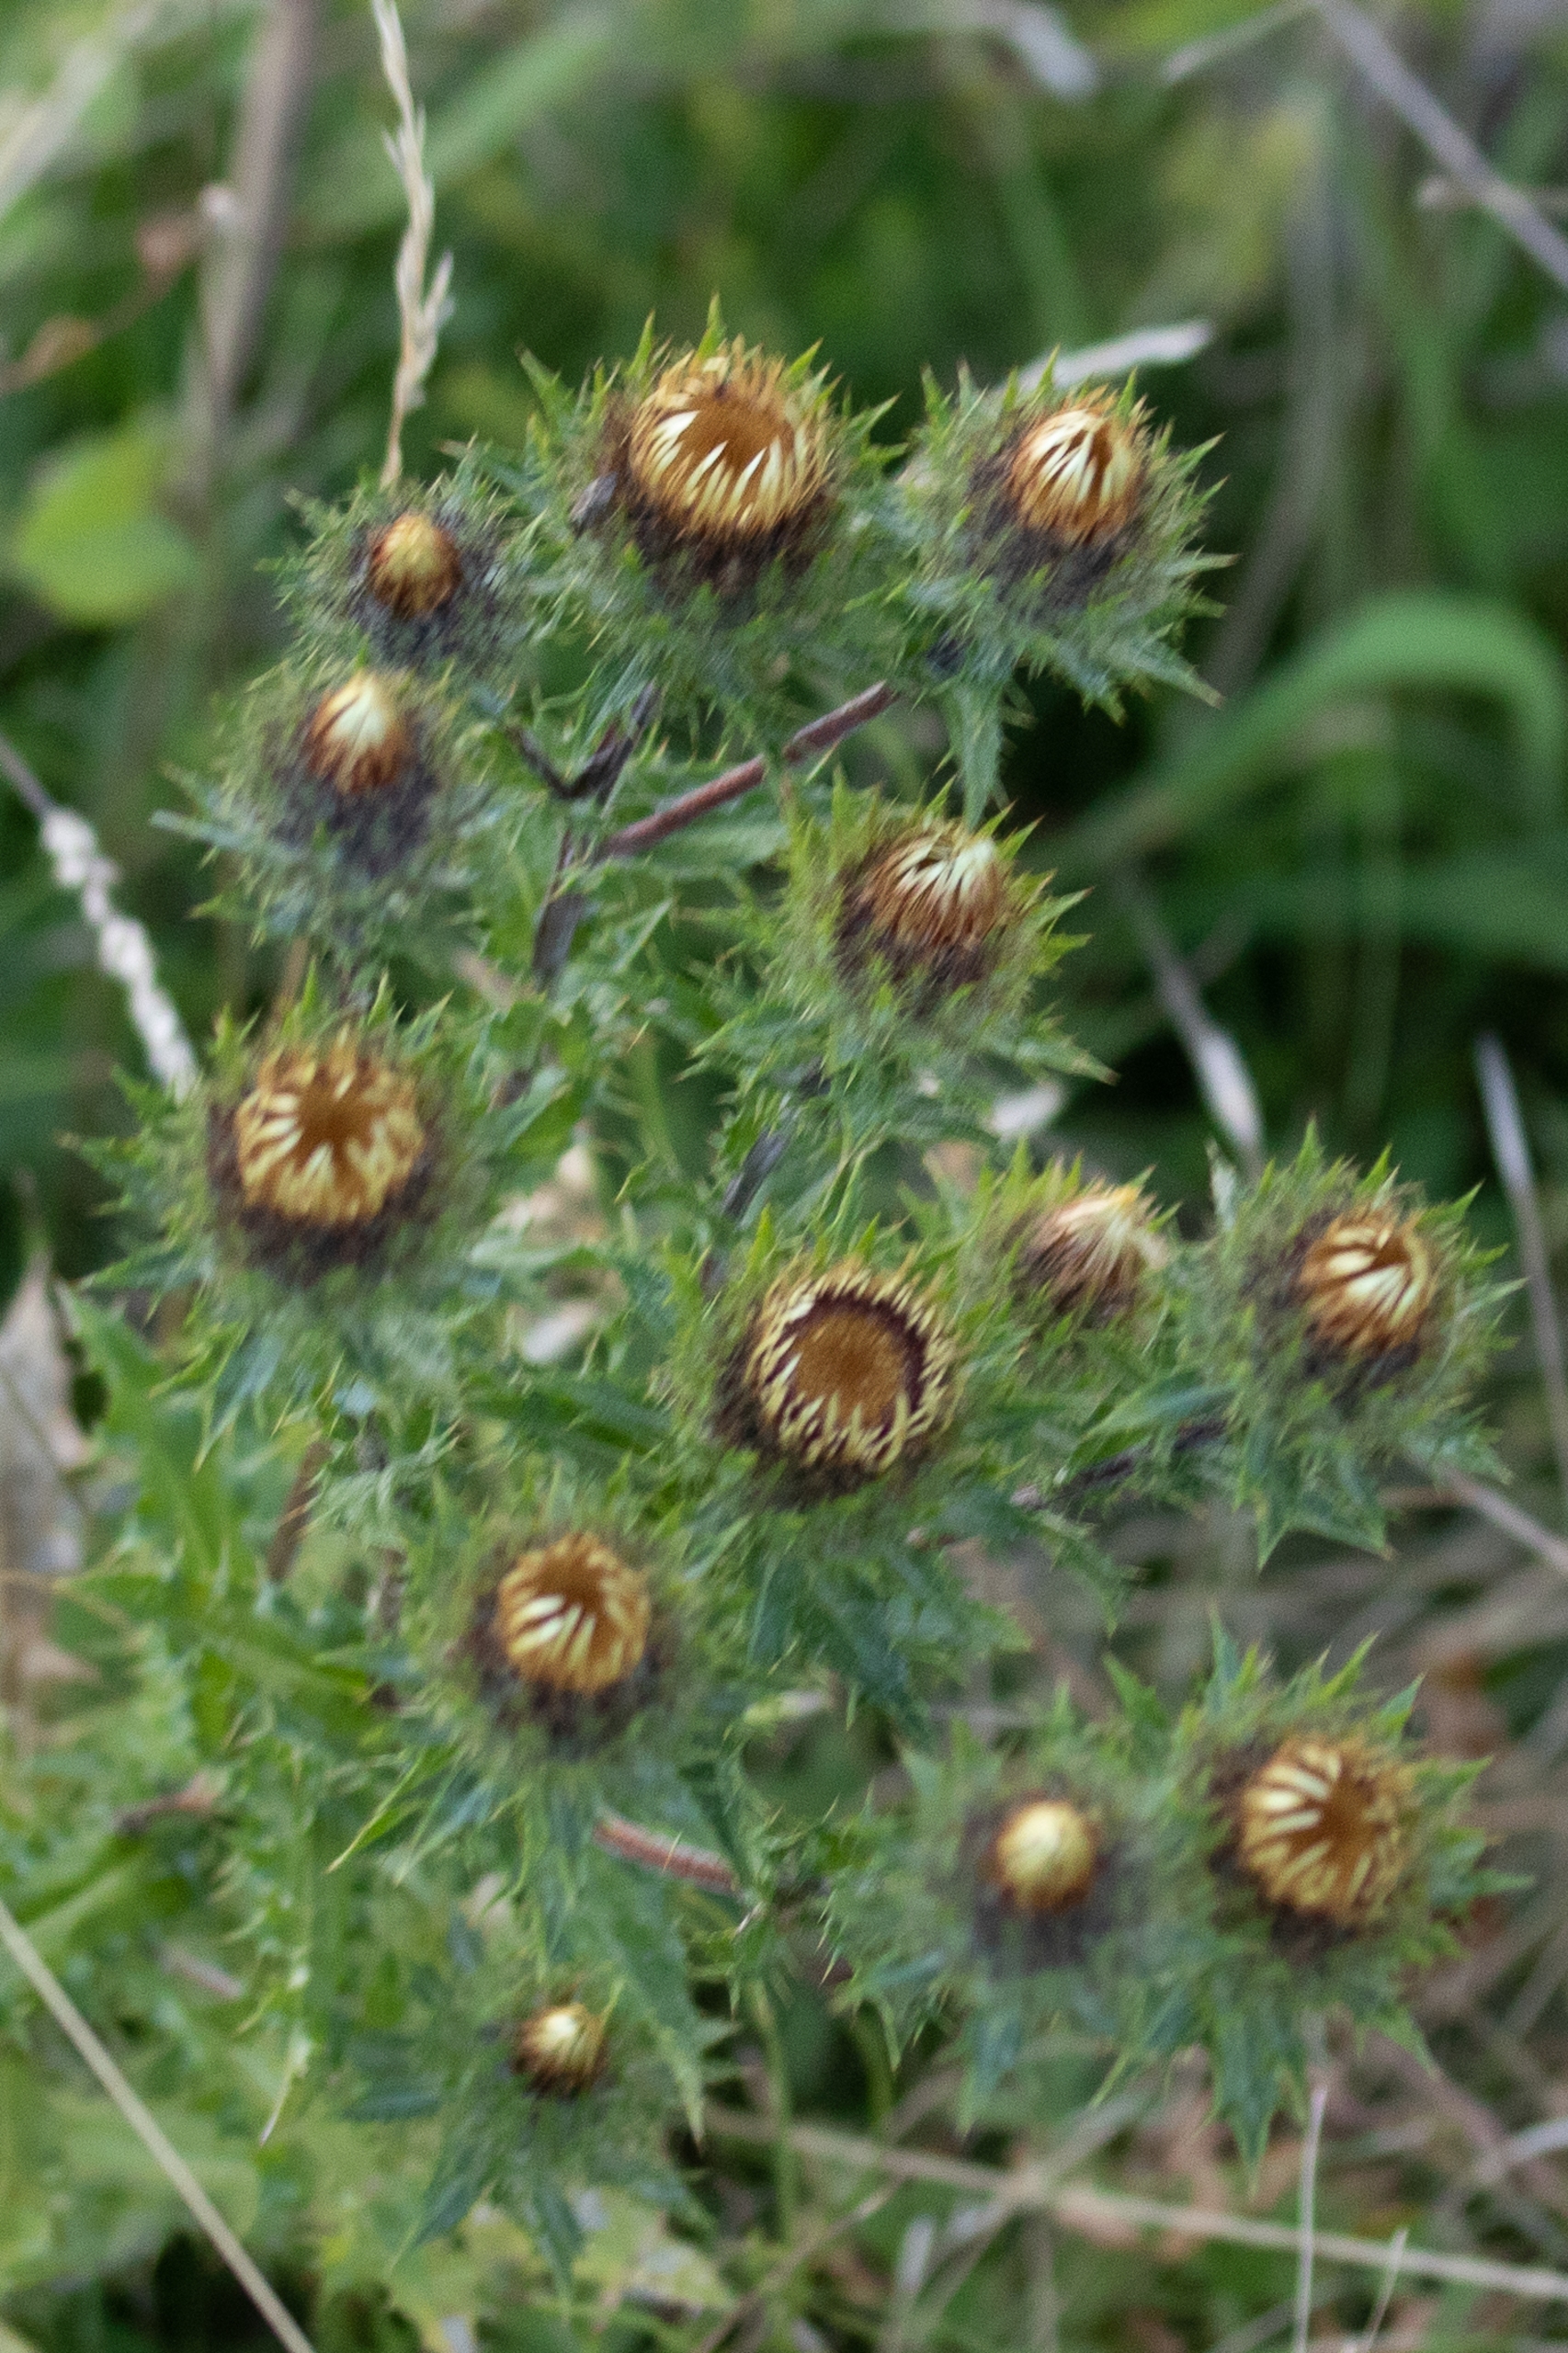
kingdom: Plantae
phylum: Tracheophyta
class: Magnoliopsida
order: Asterales
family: Asteraceae
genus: Carlina
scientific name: Carlina vulgaris
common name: Bakketidsel
